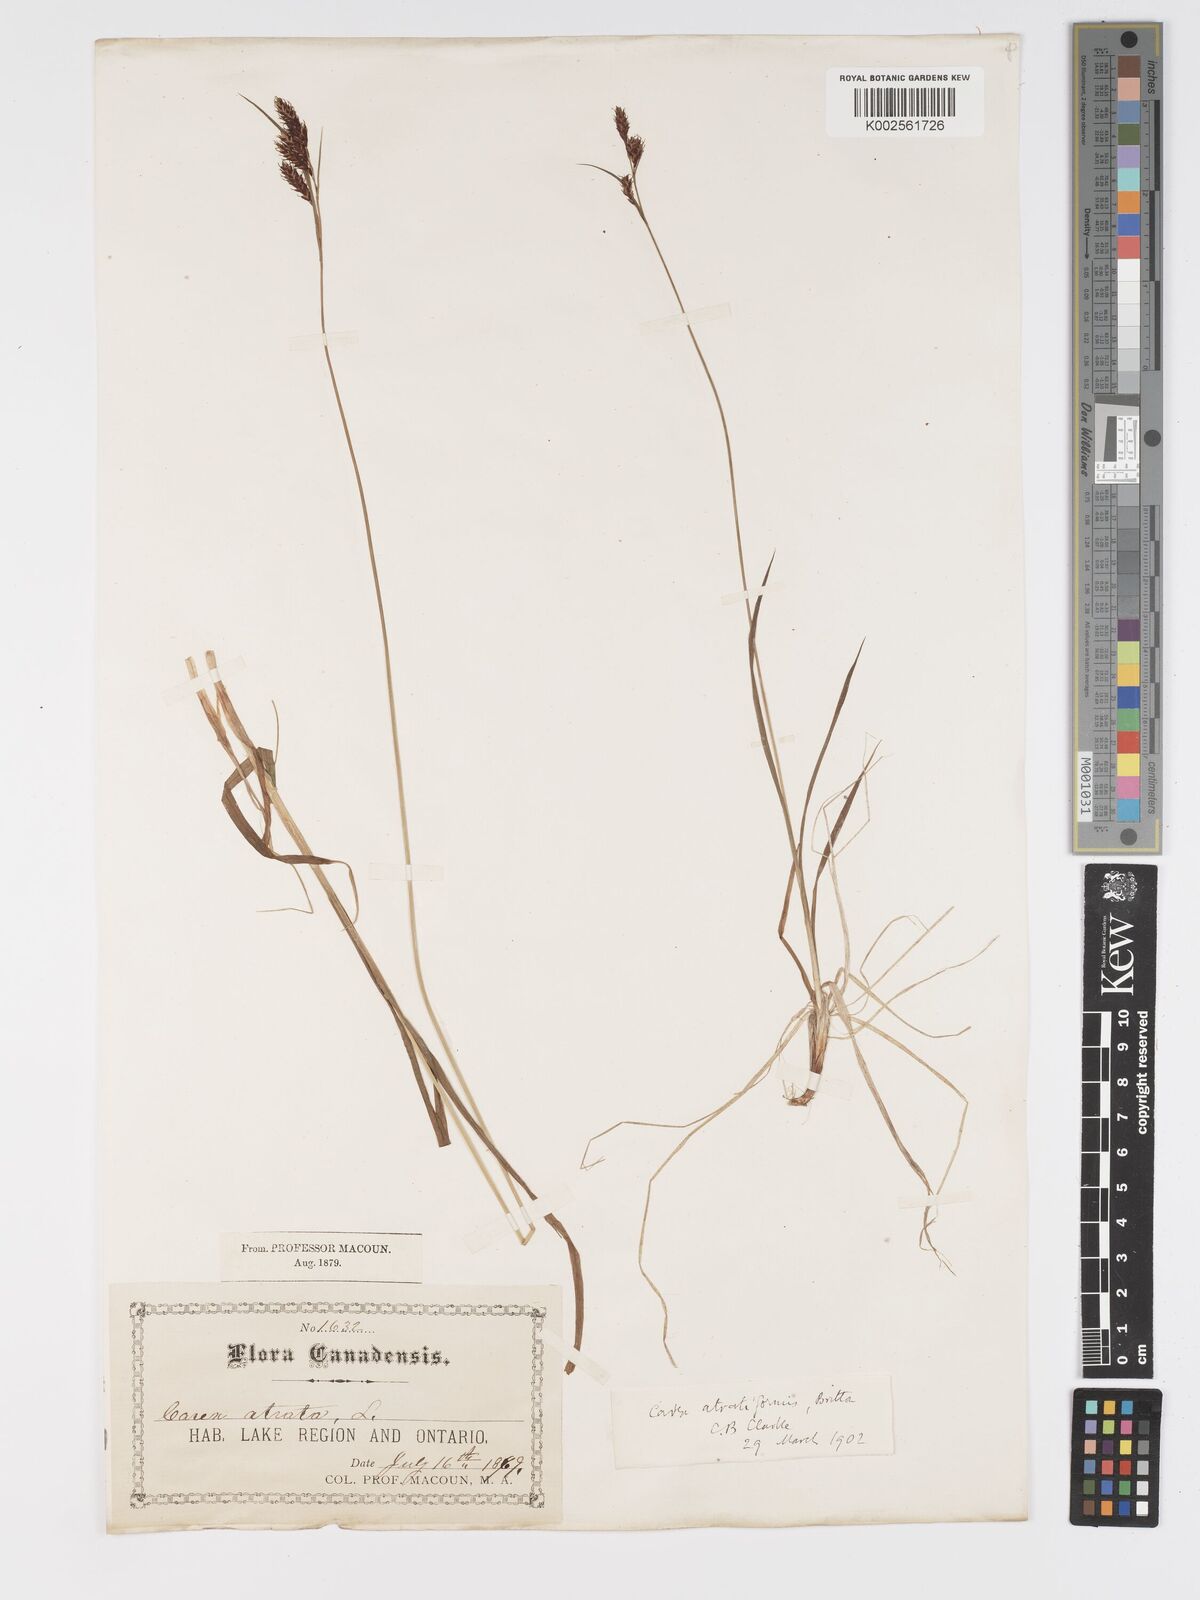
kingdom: Plantae
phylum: Tracheophyta
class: Liliopsida
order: Poales
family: Cyperaceae
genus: Carex
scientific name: Carex atratiformis
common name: Black sedge
